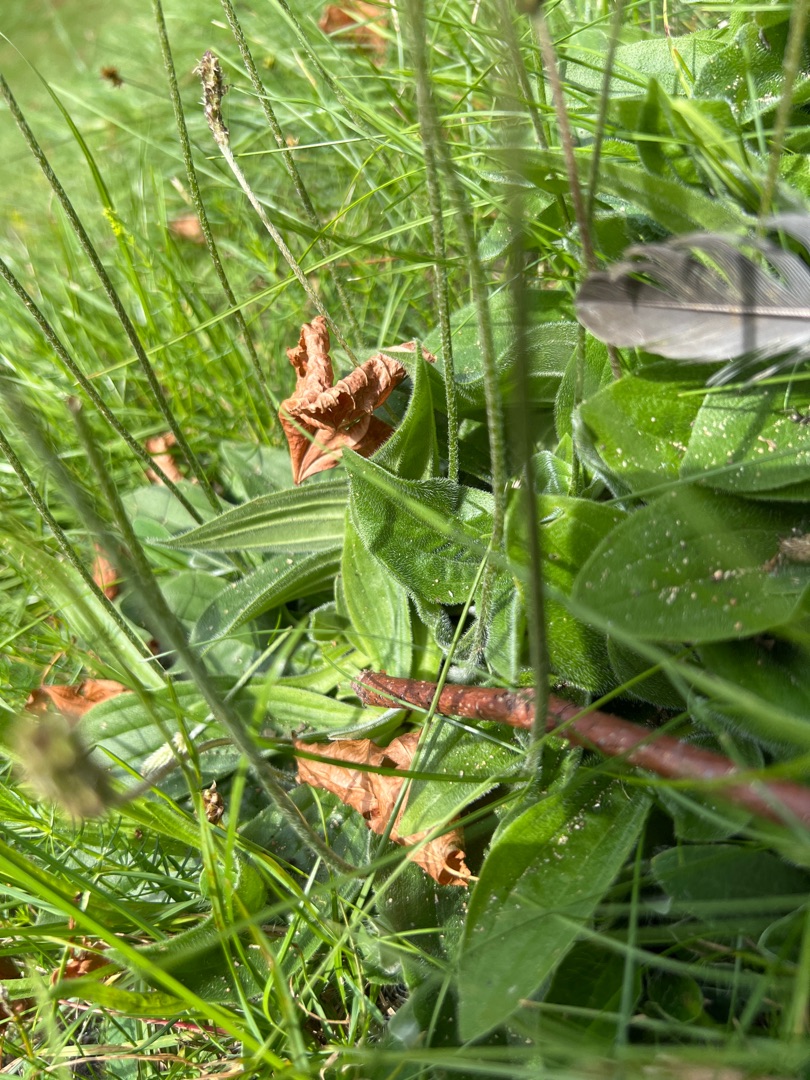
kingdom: Plantae
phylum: Tracheophyta
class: Magnoliopsida
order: Lamiales
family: Plantaginaceae
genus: Plantago
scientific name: Plantago media
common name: Dunet vejbred
